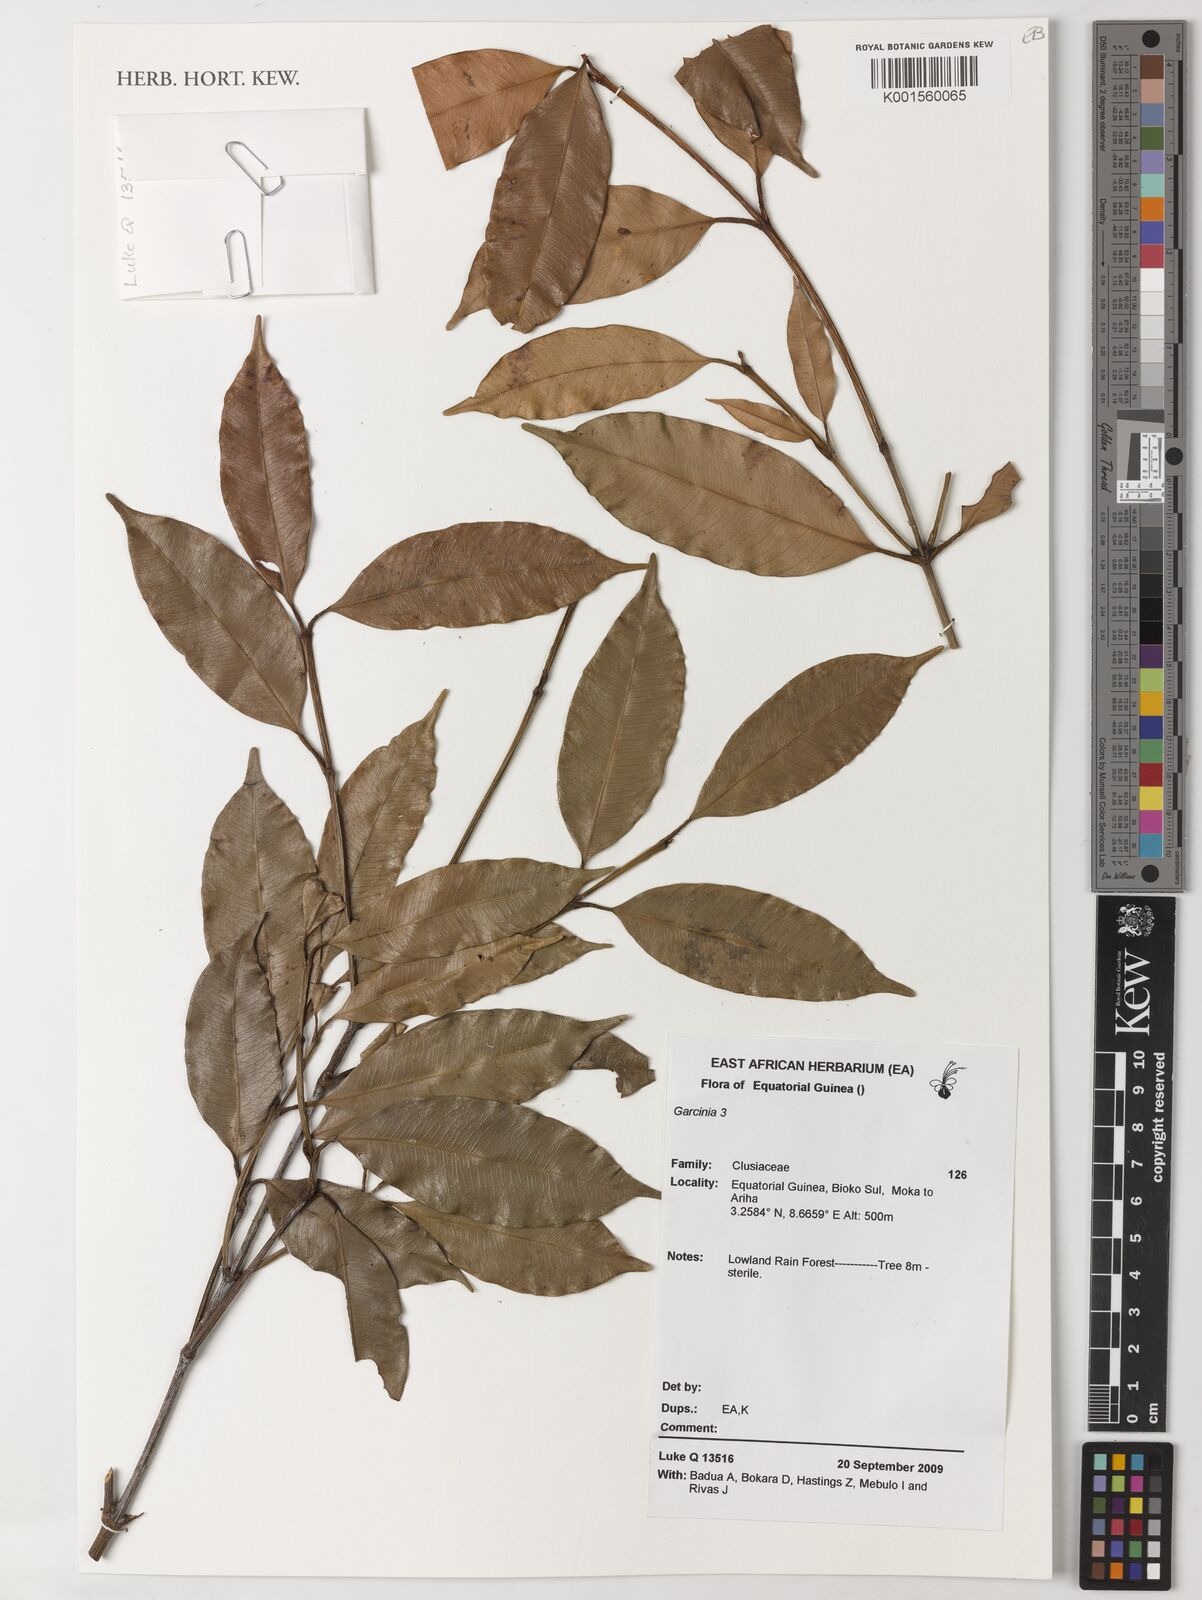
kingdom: Plantae
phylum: Tracheophyta
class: Magnoliopsida
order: Malpighiales
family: Clusiaceae
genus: Garcinia
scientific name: Garcinia
